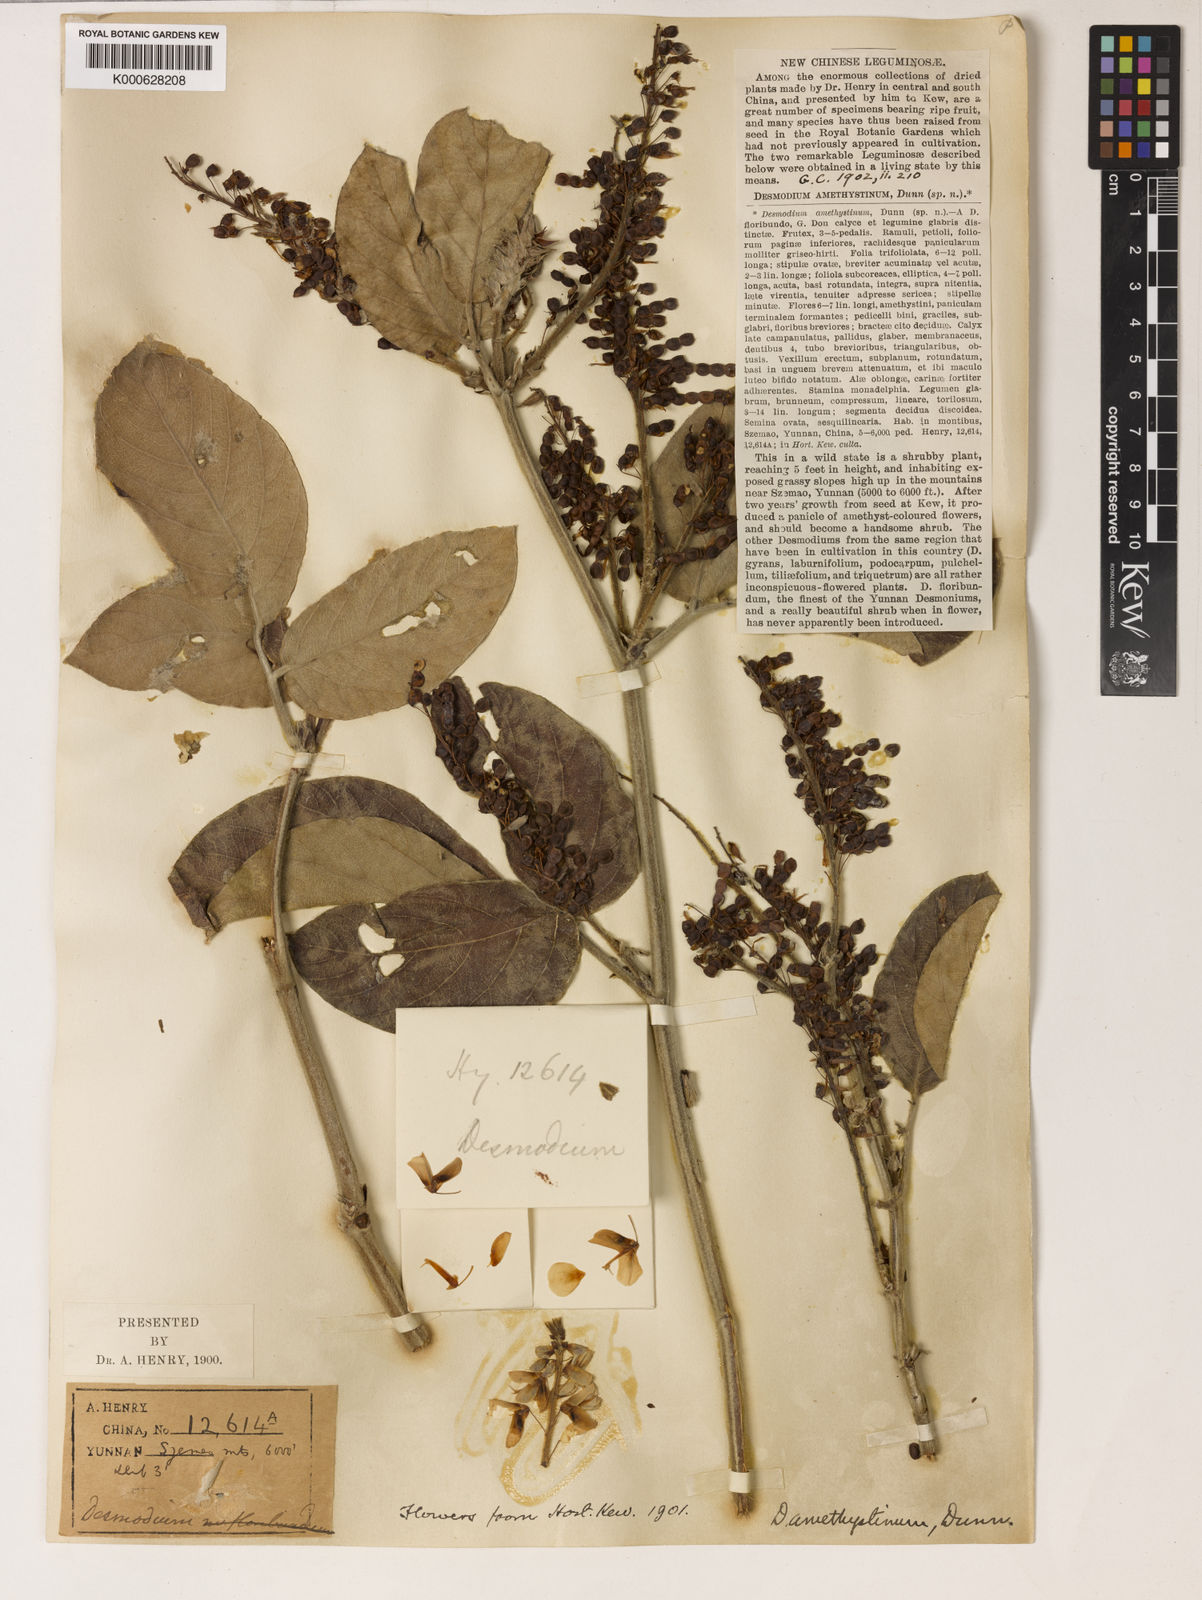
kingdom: Plantae
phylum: Tracheophyta
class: Magnoliopsida
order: Fabales
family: Fabaceae
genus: Ototropis
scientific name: Ototropis amethystina
